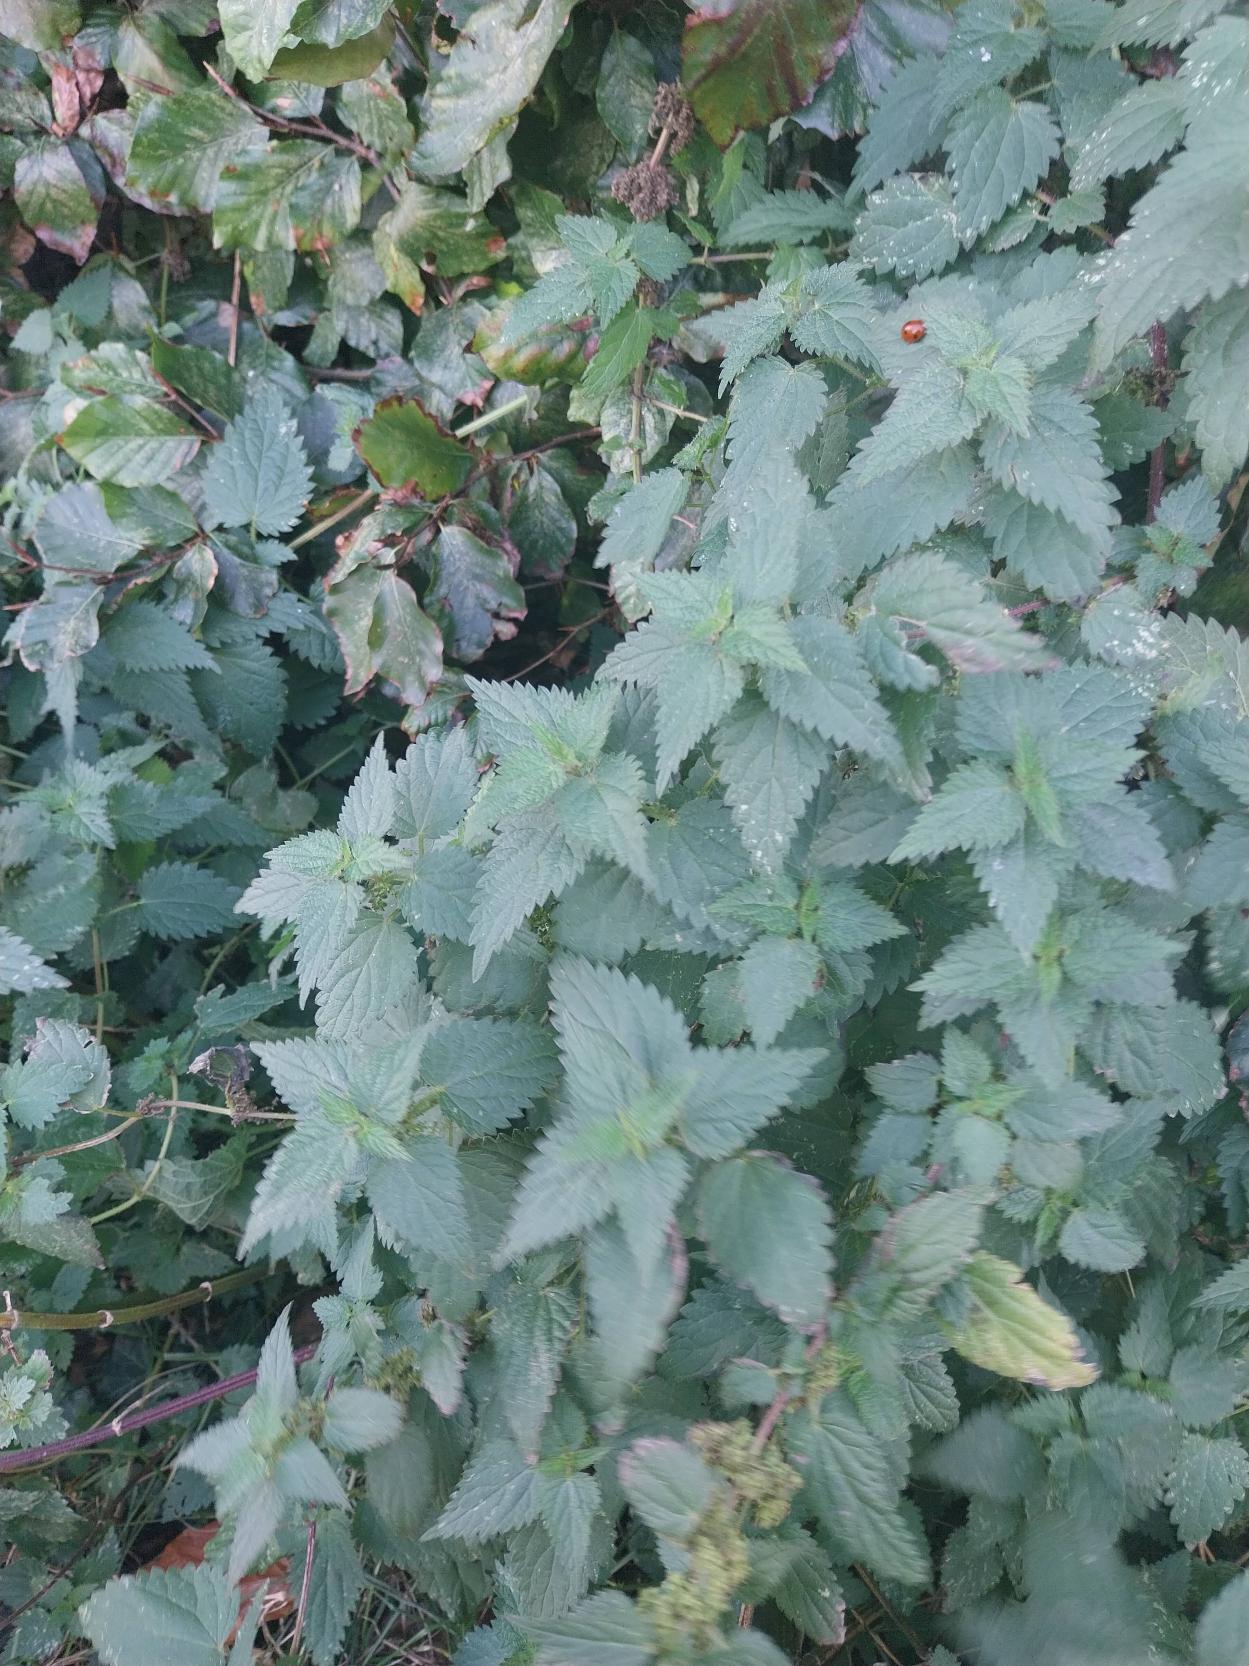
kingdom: Plantae
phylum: Tracheophyta
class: Magnoliopsida
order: Rosales
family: Urticaceae
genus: Urtica
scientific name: Urtica dioica
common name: Stor nælde
